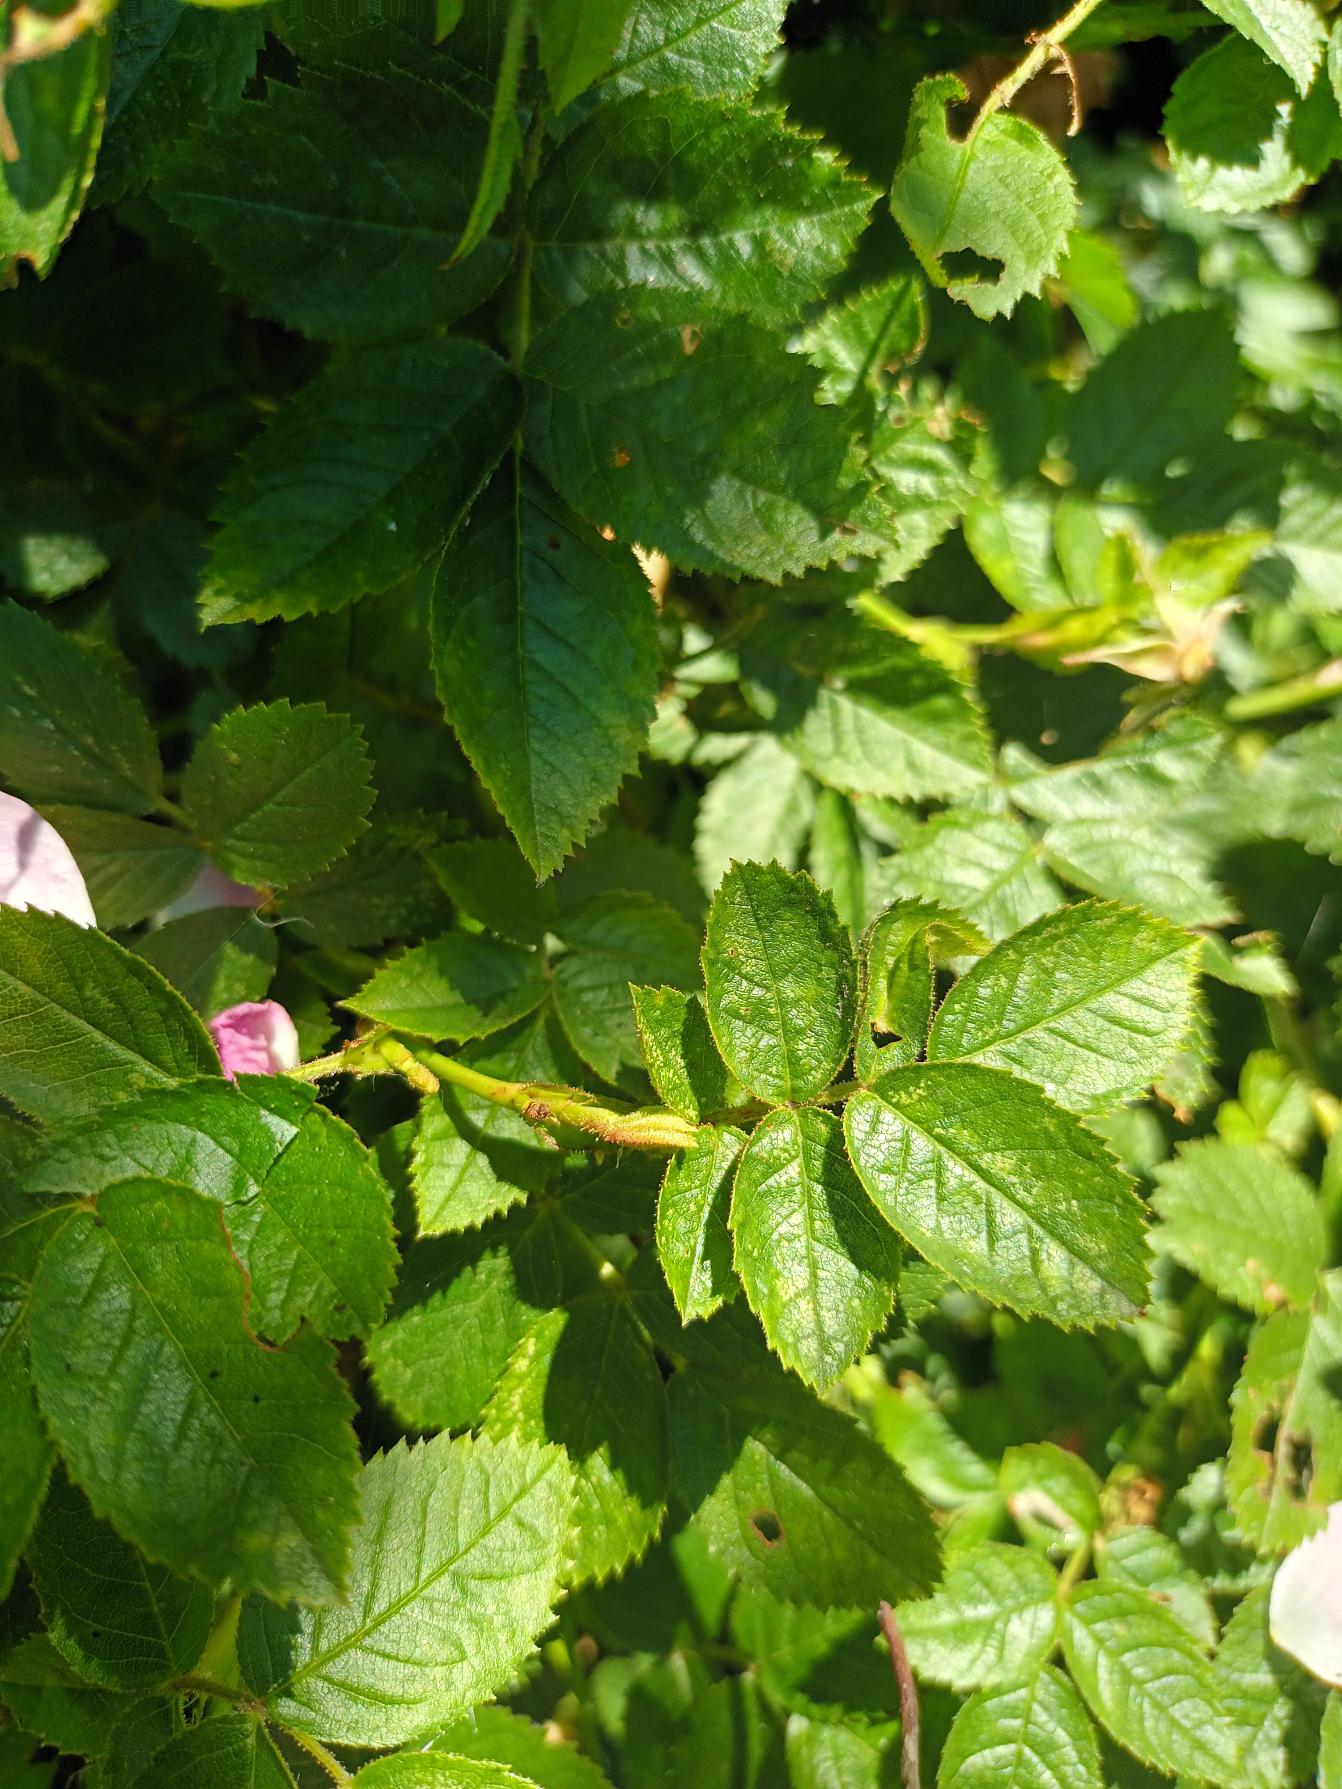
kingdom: Plantae
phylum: Tracheophyta
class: Magnoliopsida
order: Rosales
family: Rosaceae
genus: Rosa
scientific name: Rosa rubiginosa
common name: Æble-rose
